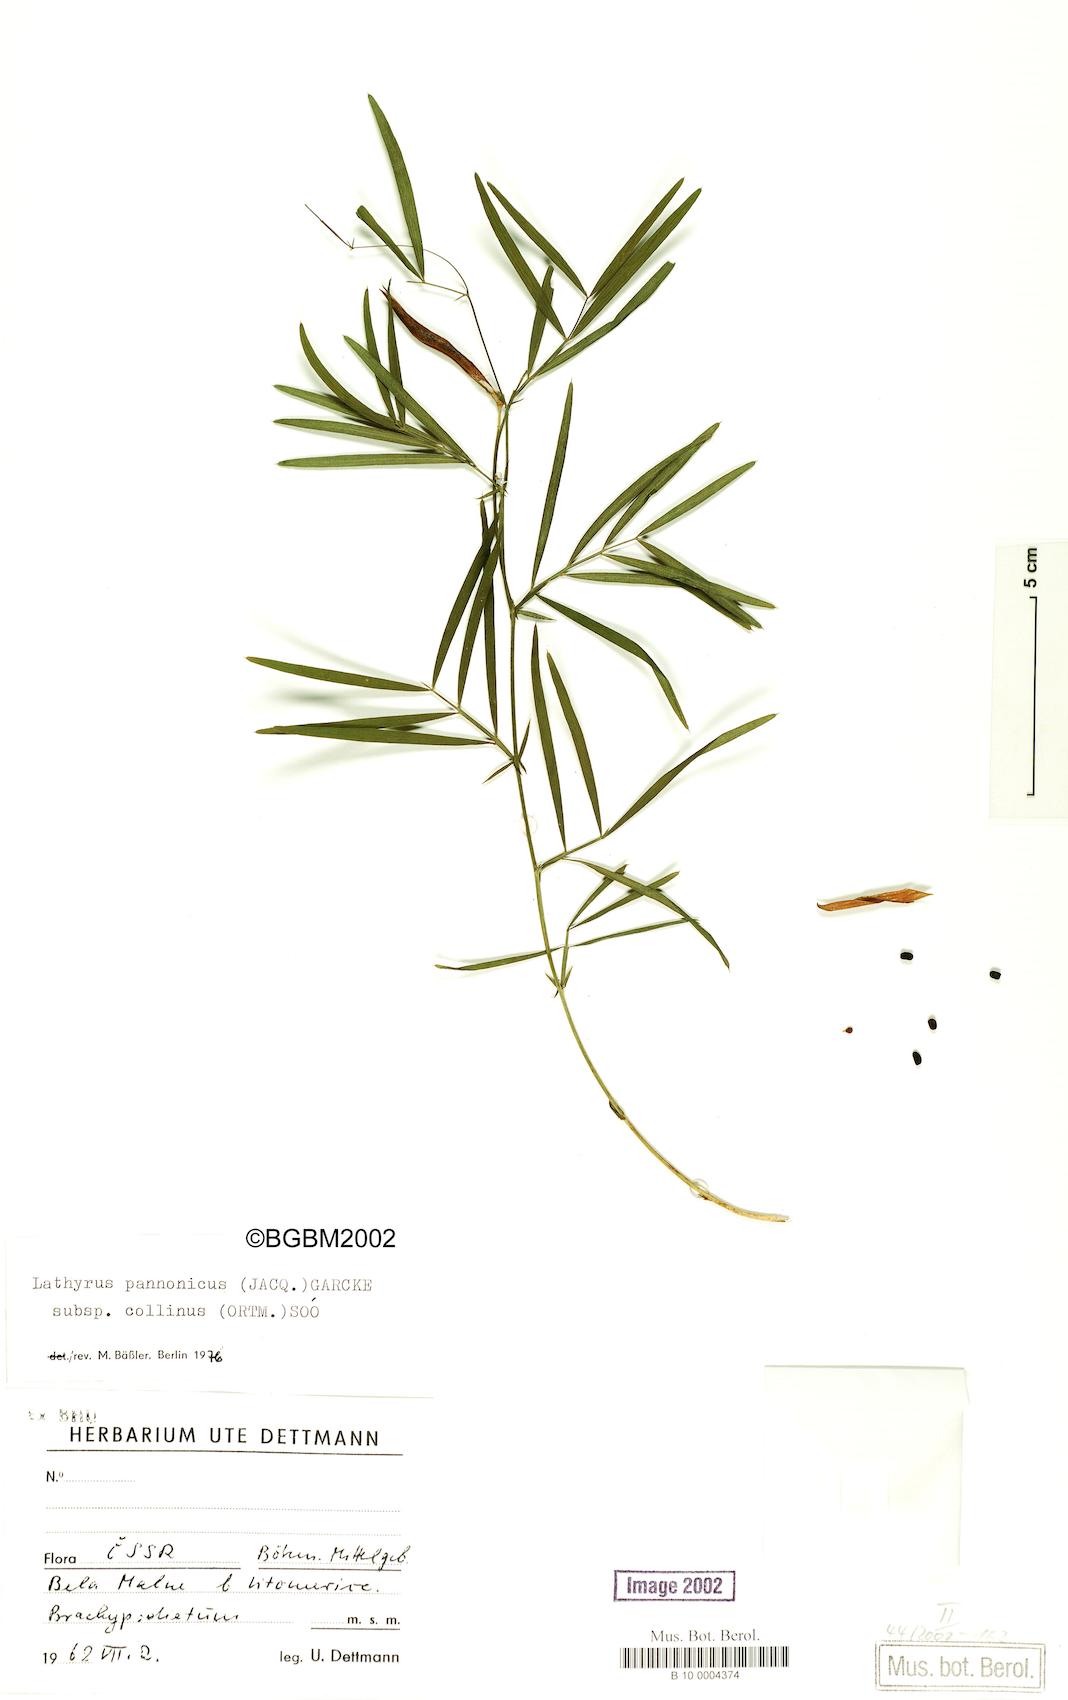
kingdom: Plantae
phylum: Tracheophyta
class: Magnoliopsida
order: Fabales
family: Fabaceae
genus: Lathyrus
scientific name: Lathyrus pannonicus
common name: Pea
